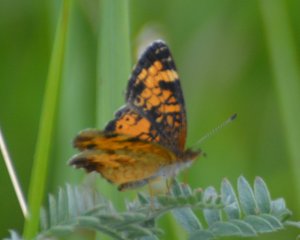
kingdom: Animalia
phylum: Arthropoda
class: Insecta
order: Lepidoptera
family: Nymphalidae
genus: Phyciodes
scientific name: Phyciodes tharos
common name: Northern Crescent
